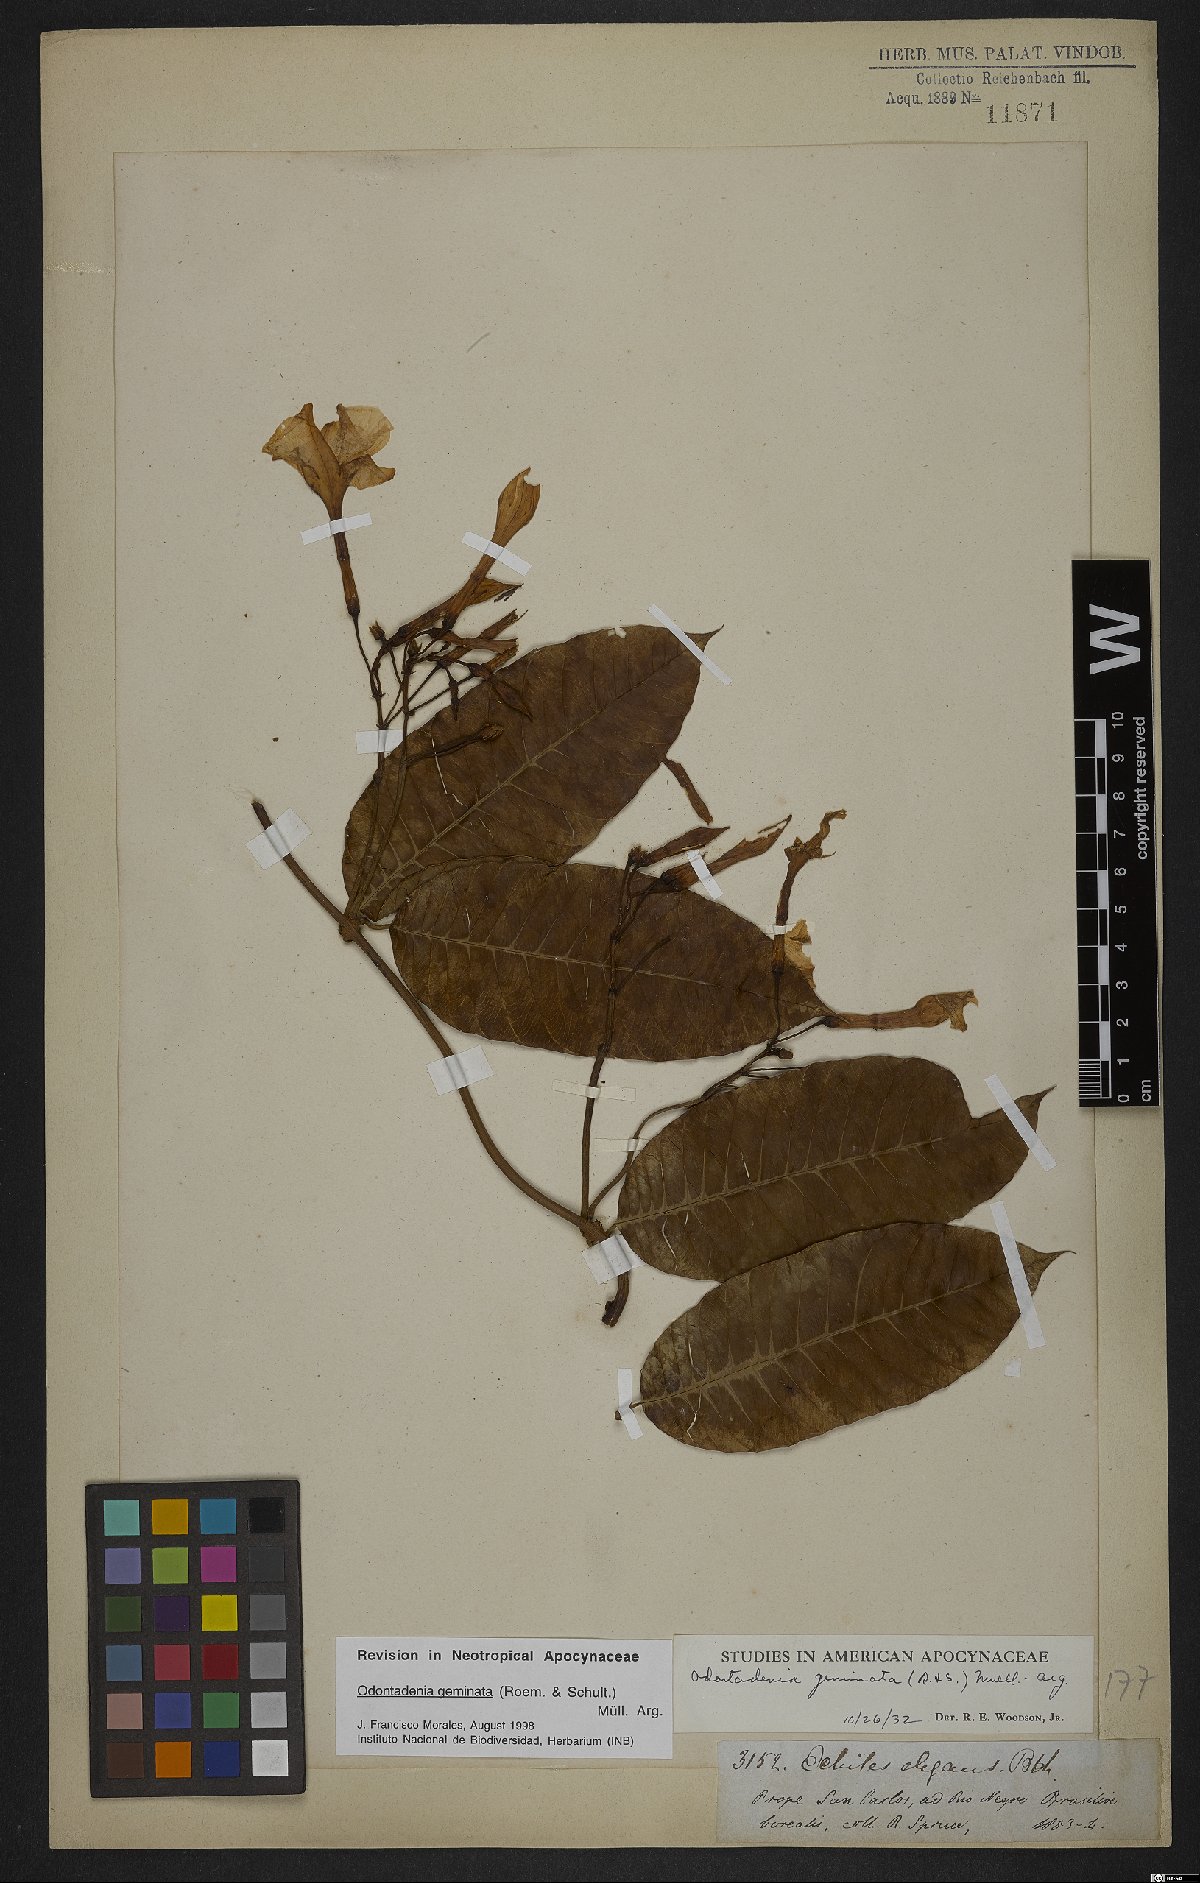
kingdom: Plantae
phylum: Tracheophyta
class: Magnoliopsida
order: Gentianales
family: Apocynaceae
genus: Odontadenia
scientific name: Odontadenia geminata
